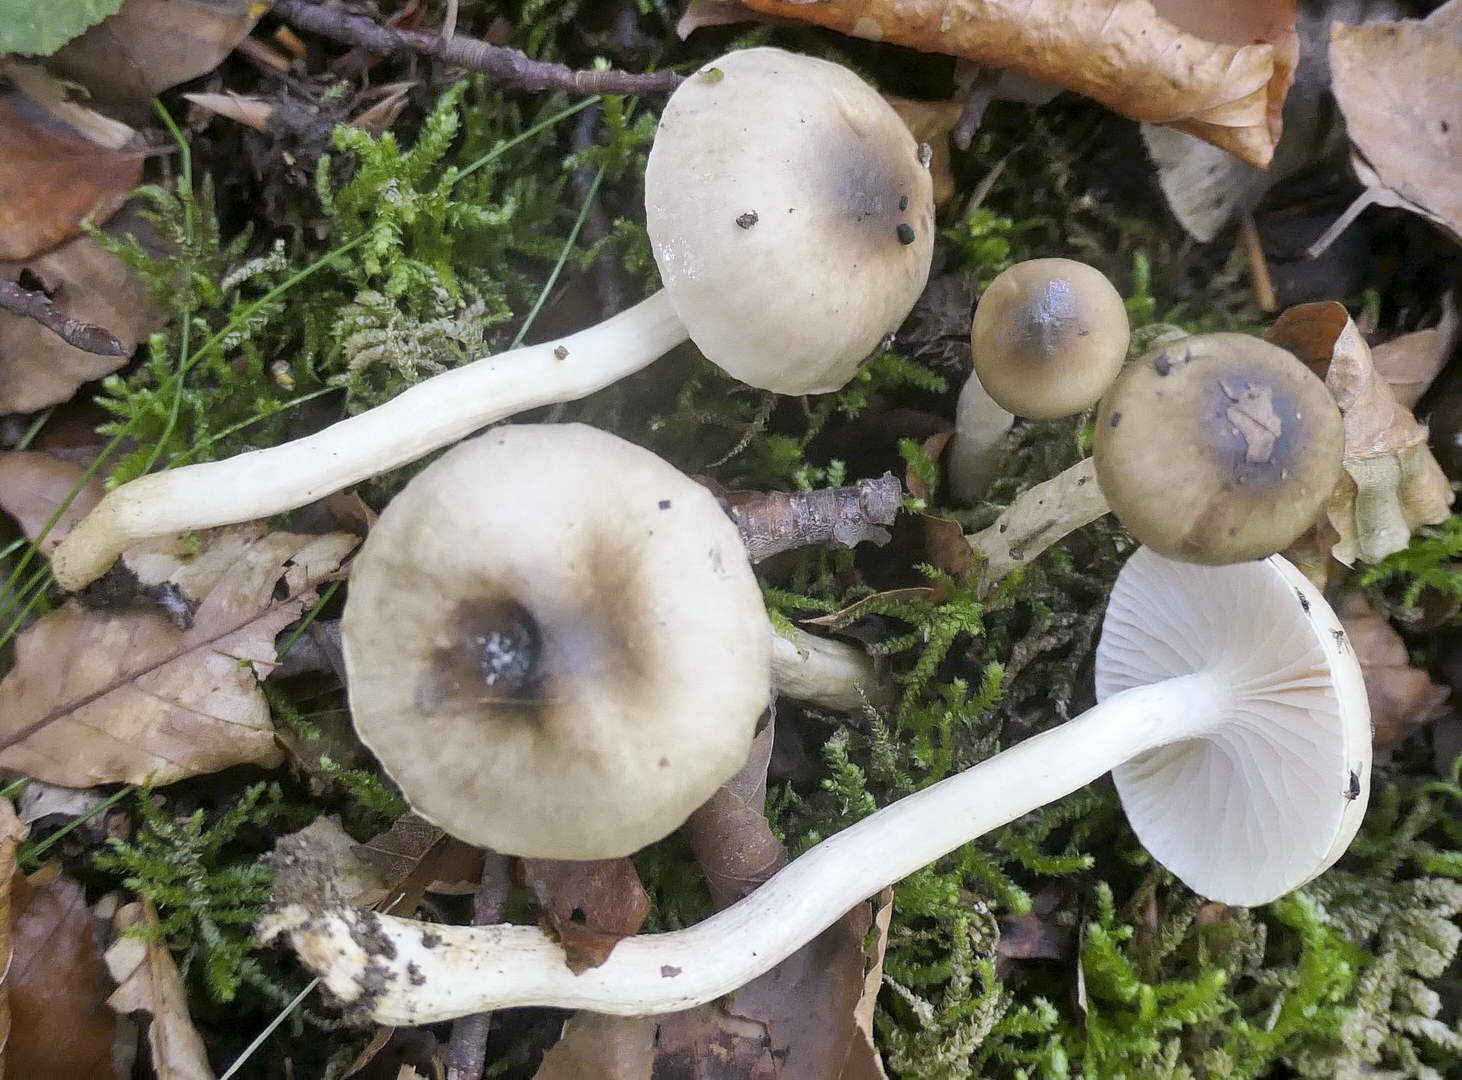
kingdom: Fungi
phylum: Basidiomycota
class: Agaricomycetes
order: Agaricales
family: Hygrophoraceae
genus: Hygrophorus
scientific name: Hygrophorus mesotephrus
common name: askegrå sneglehat
